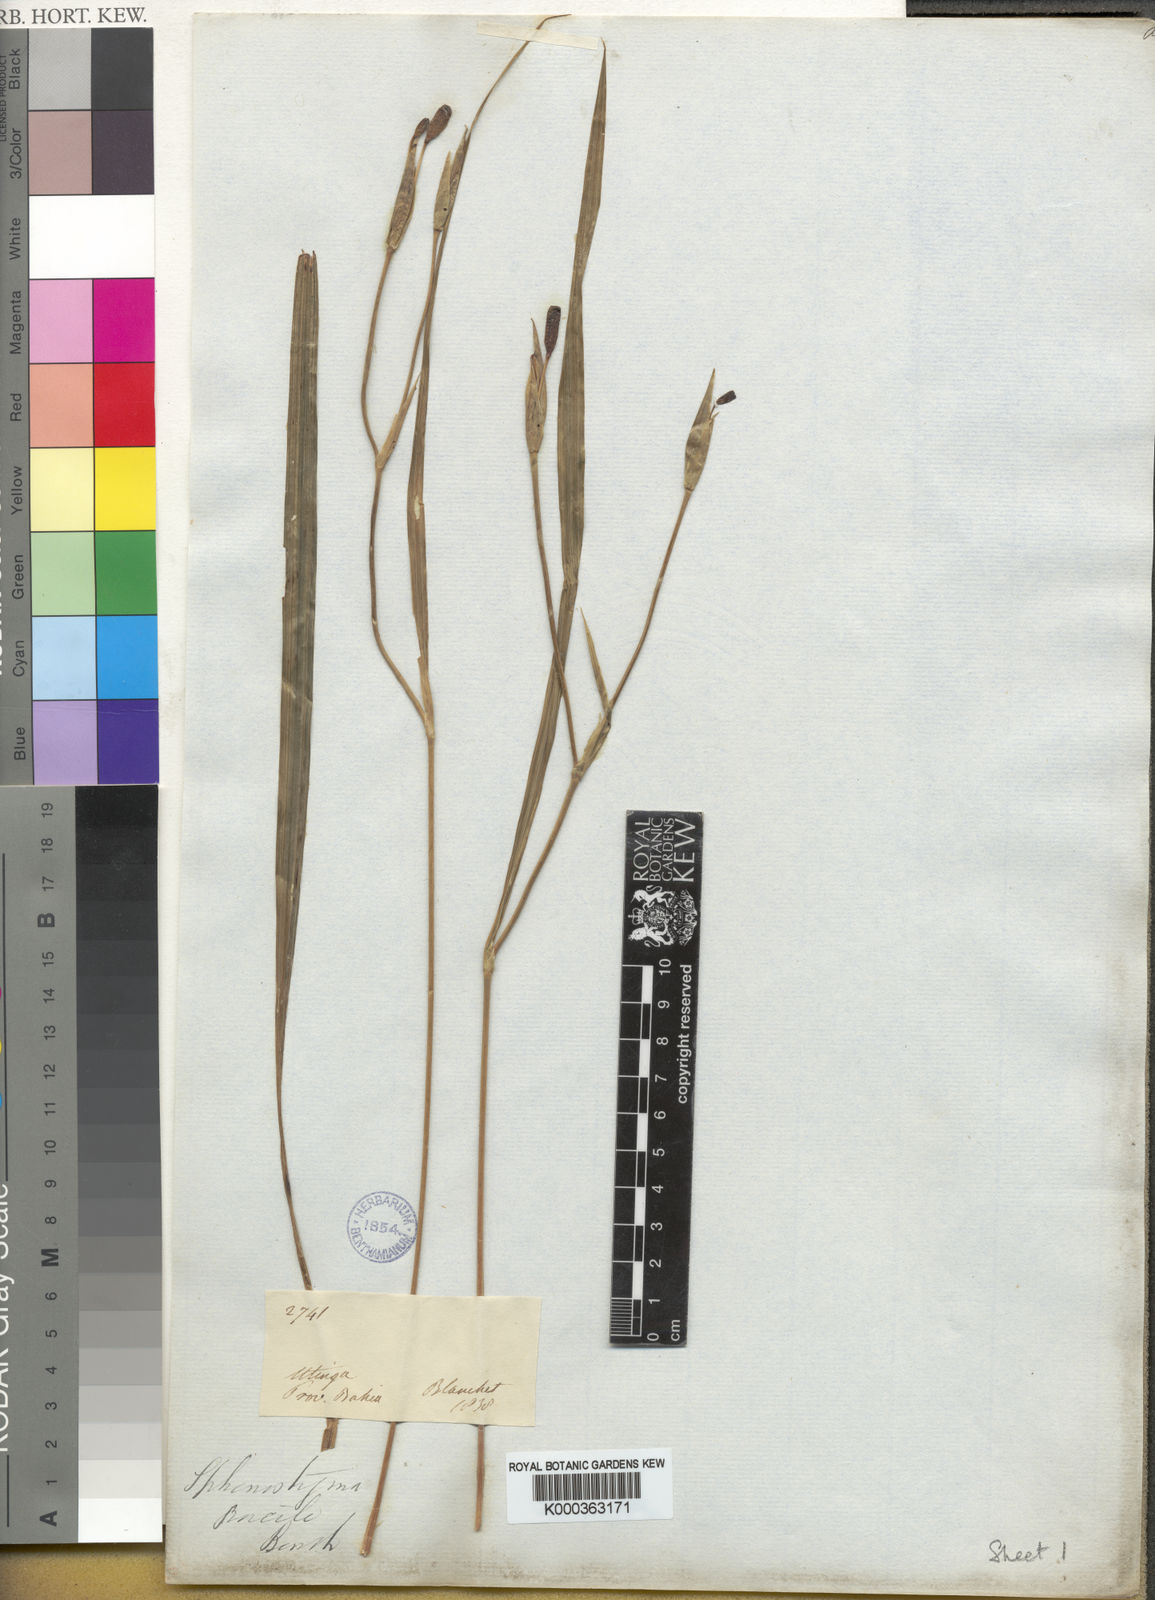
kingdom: Plantae
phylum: Tracheophyta
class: Liliopsida
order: Asparagales
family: Iridaceae
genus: Larentia
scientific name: Larentia linearis
